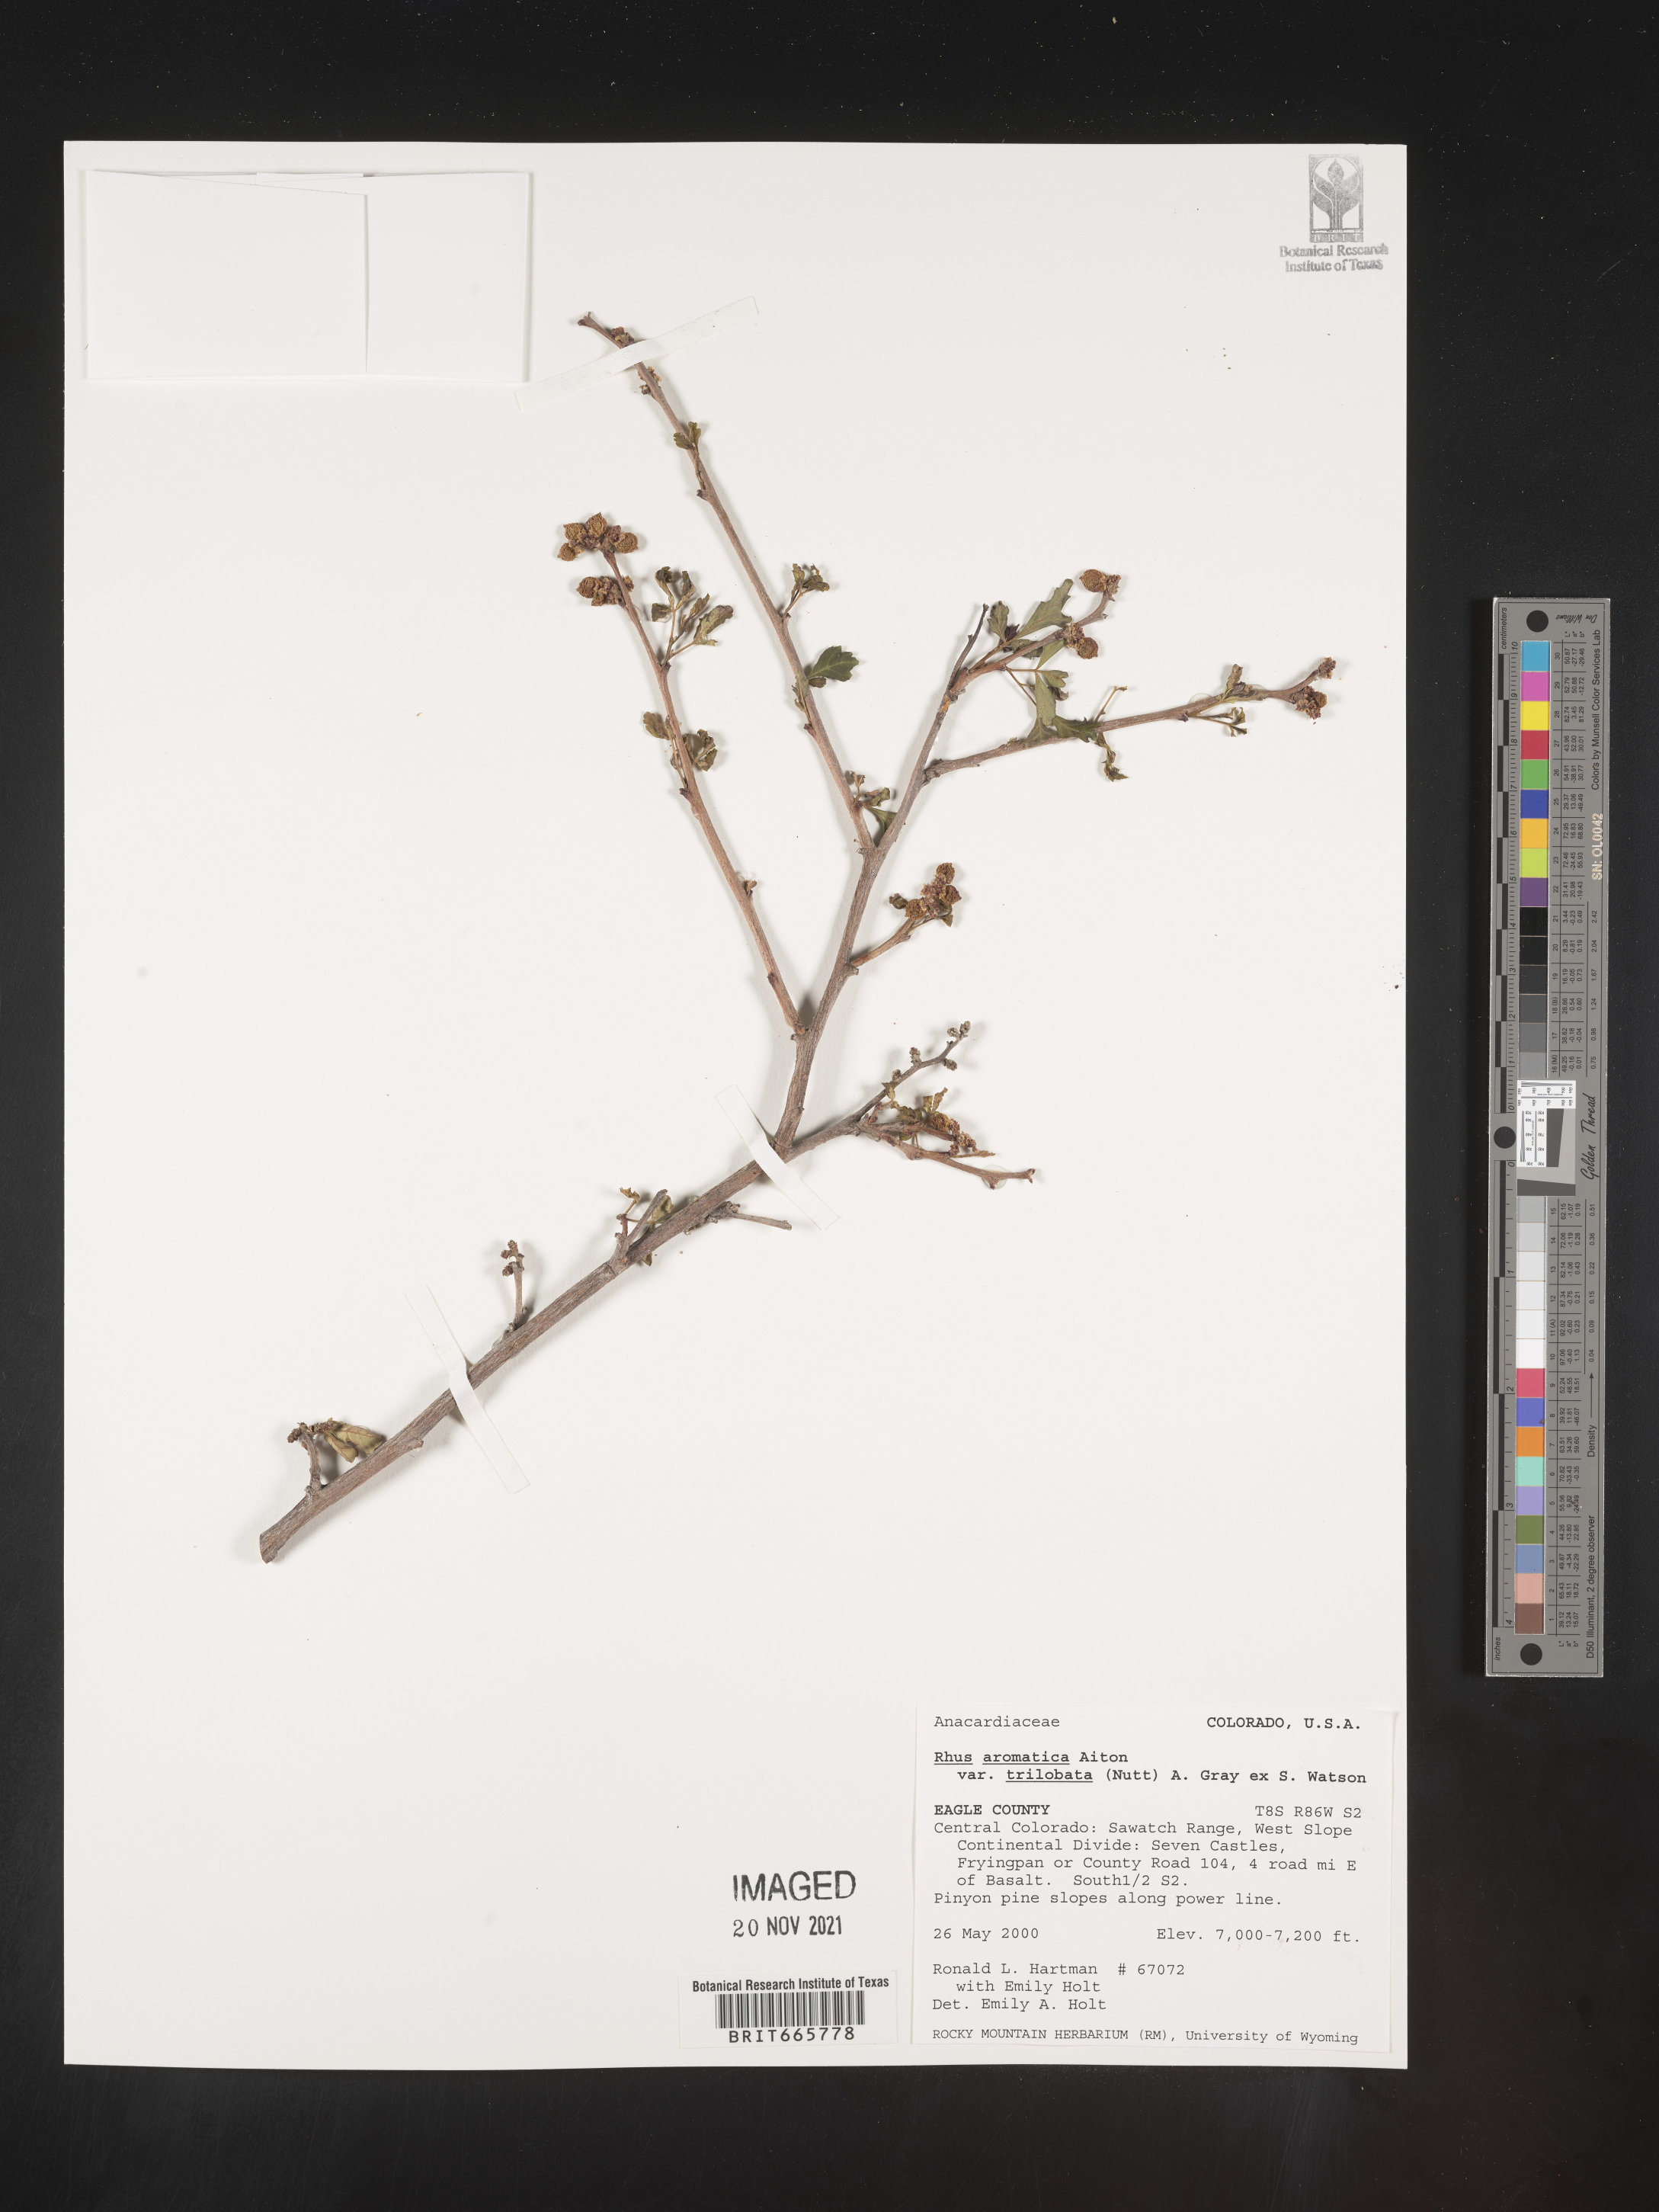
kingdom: Plantae
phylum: Tracheophyta
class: Magnoliopsida
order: Sapindales
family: Anacardiaceae
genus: Rhus
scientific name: Rhus aromatica
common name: Aromatic sumac
